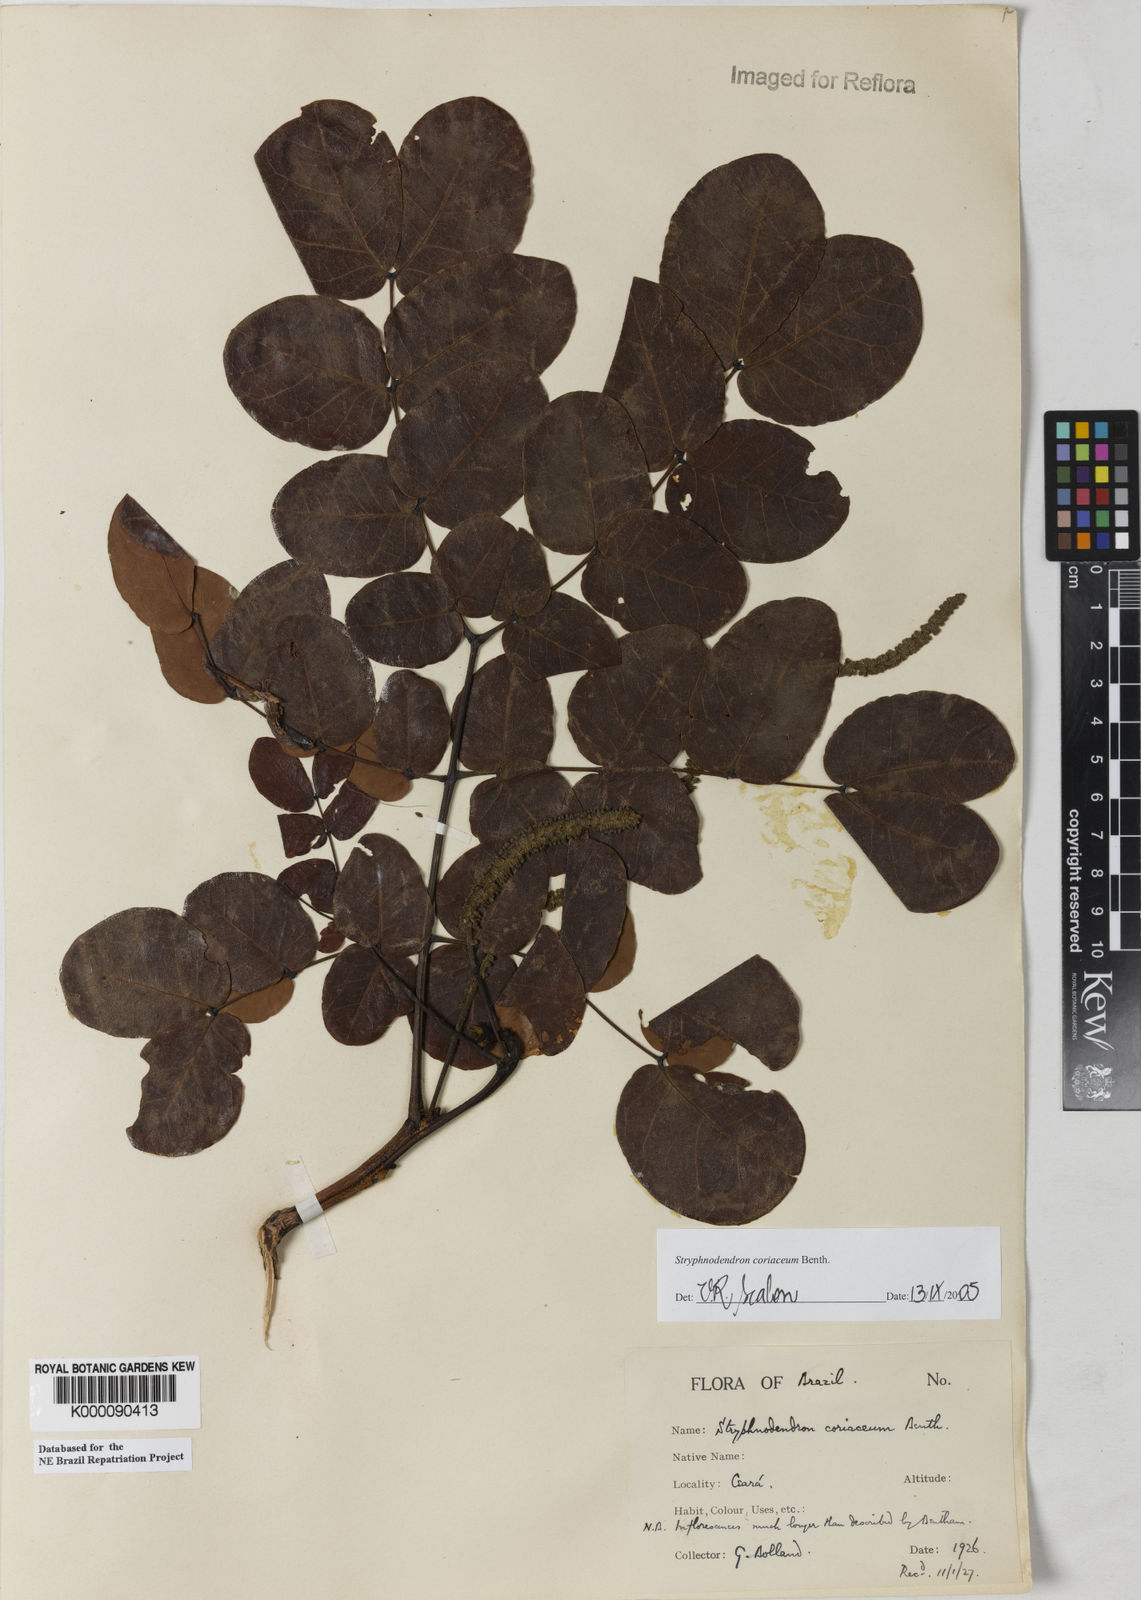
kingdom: Plantae
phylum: Tracheophyta
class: Magnoliopsida
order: Fabales
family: Fabaceae
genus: Stryphnodendron
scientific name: Stryphnodendron coriaceum
